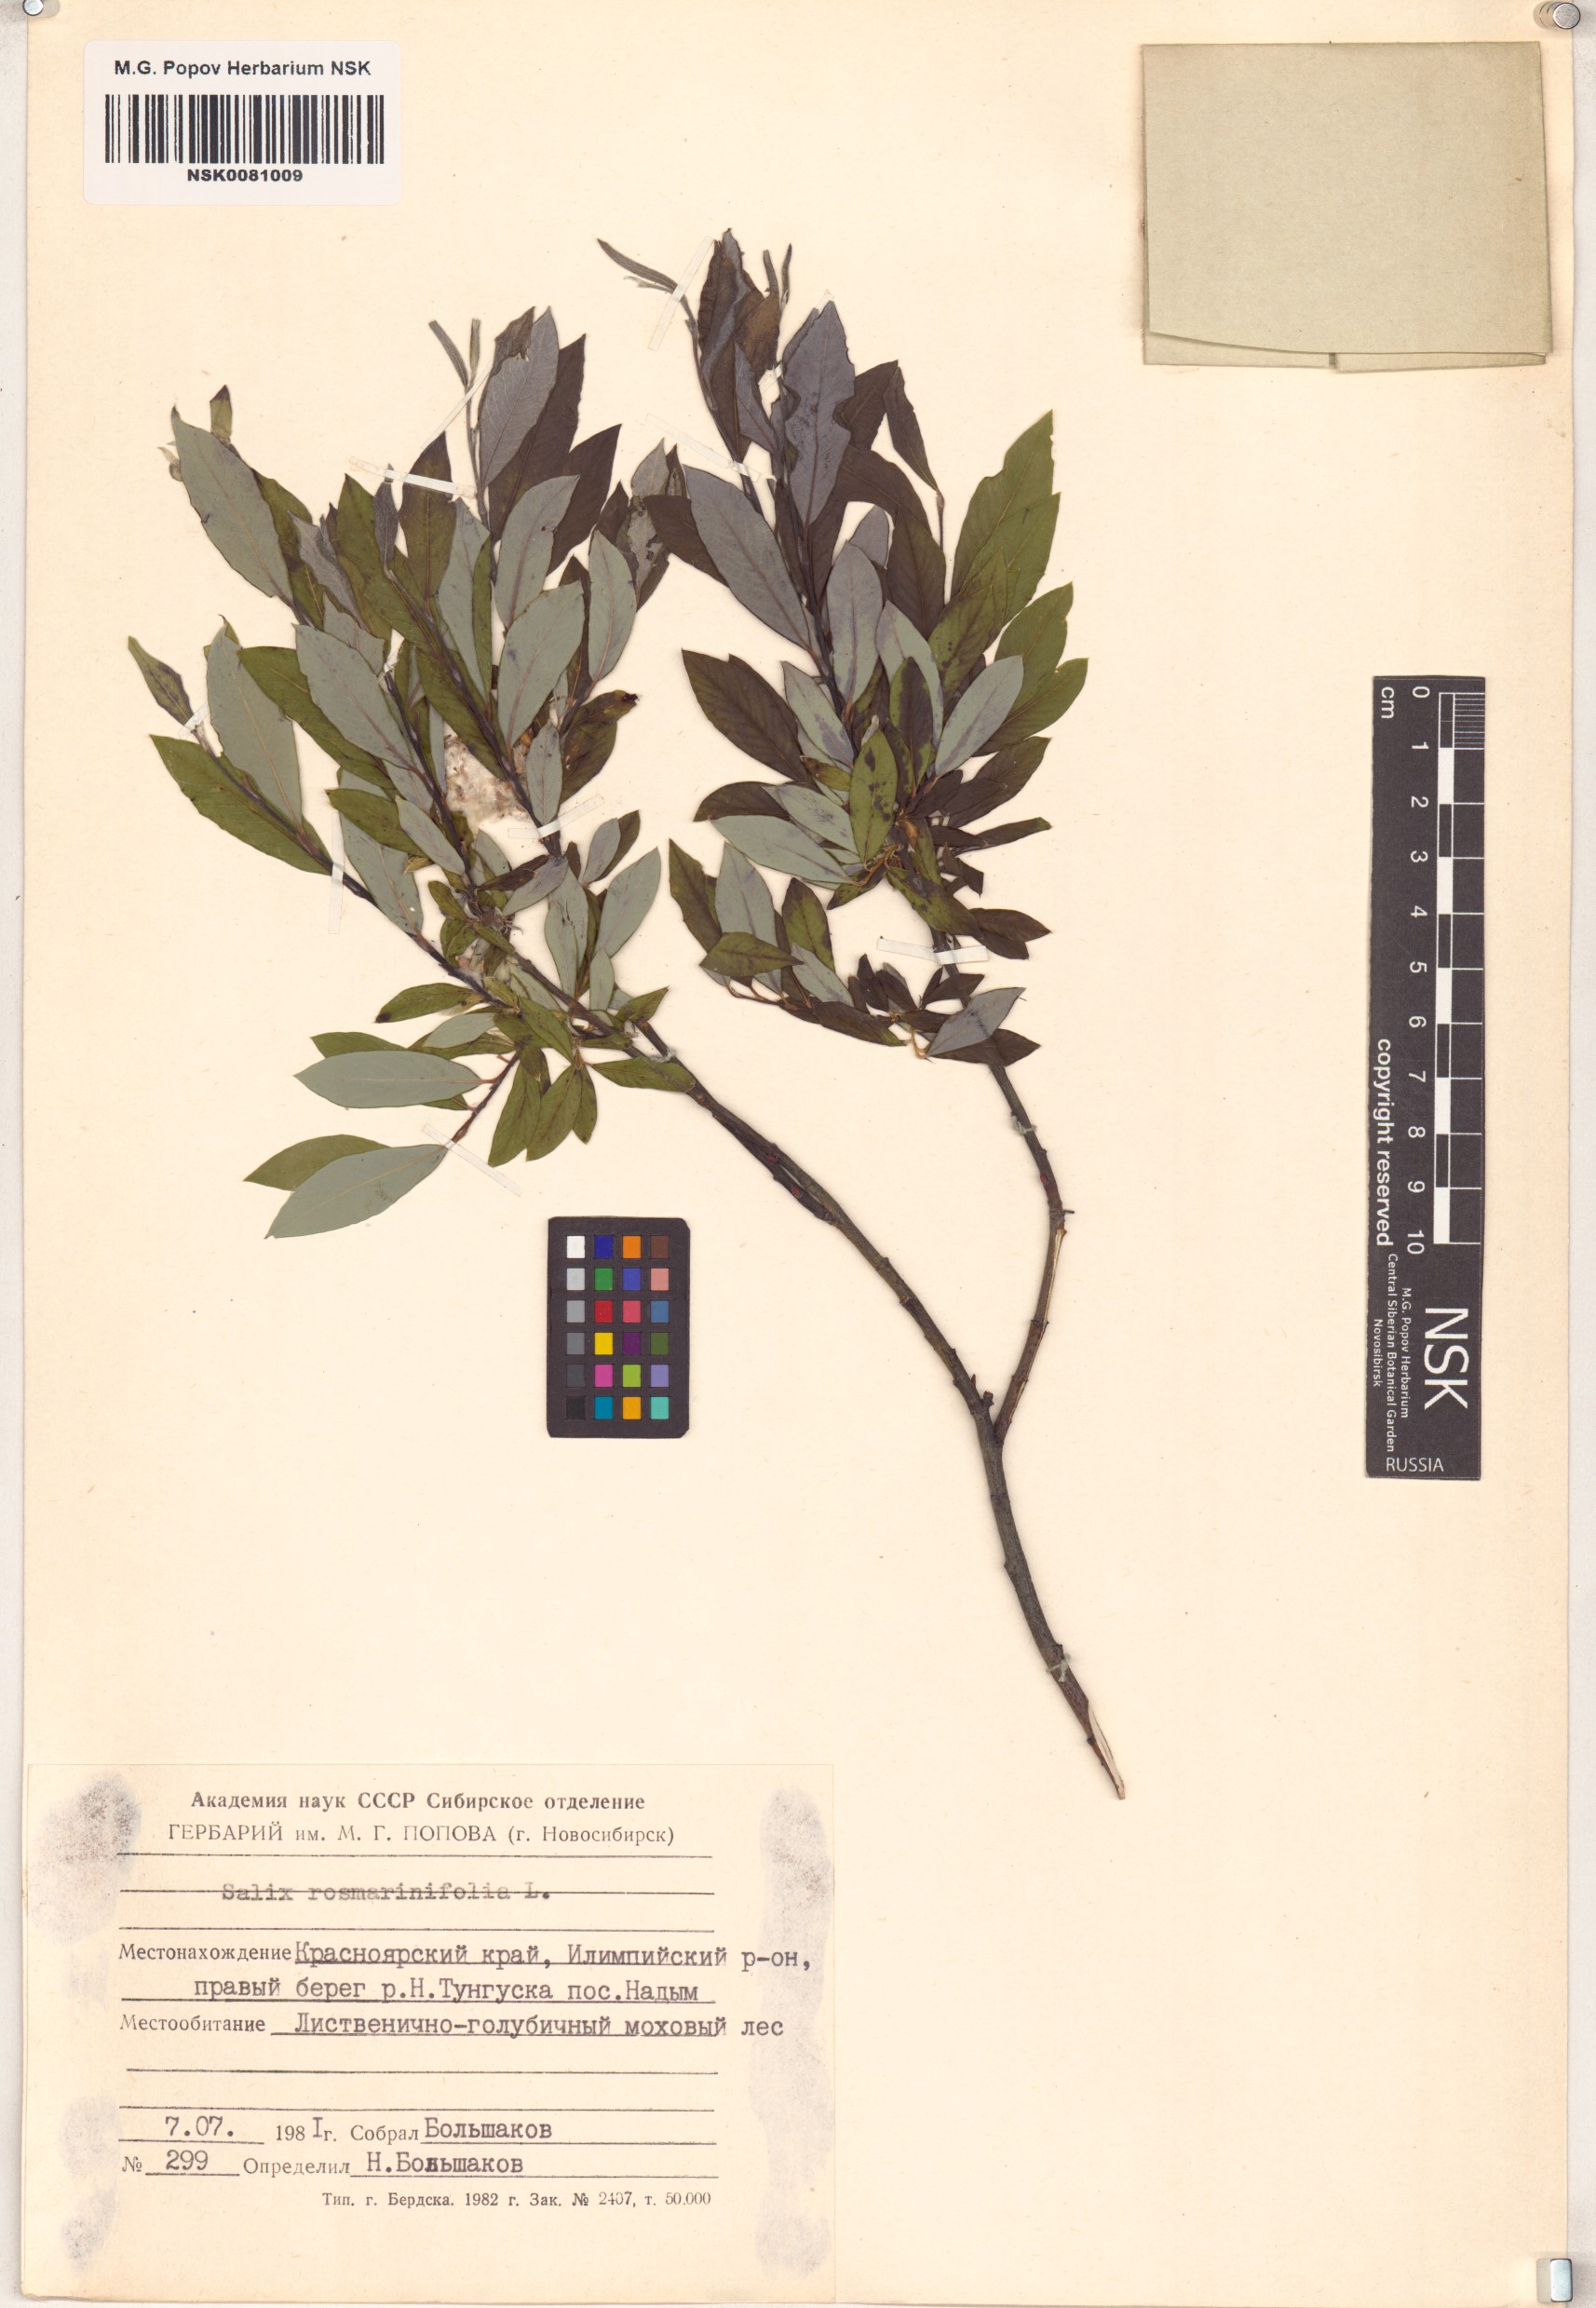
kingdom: Plantae
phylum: Tracheophyta
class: Magnoliopsida
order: Malpighiales
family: Salicaceae
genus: Salix
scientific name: Salix rosmarinifolia
